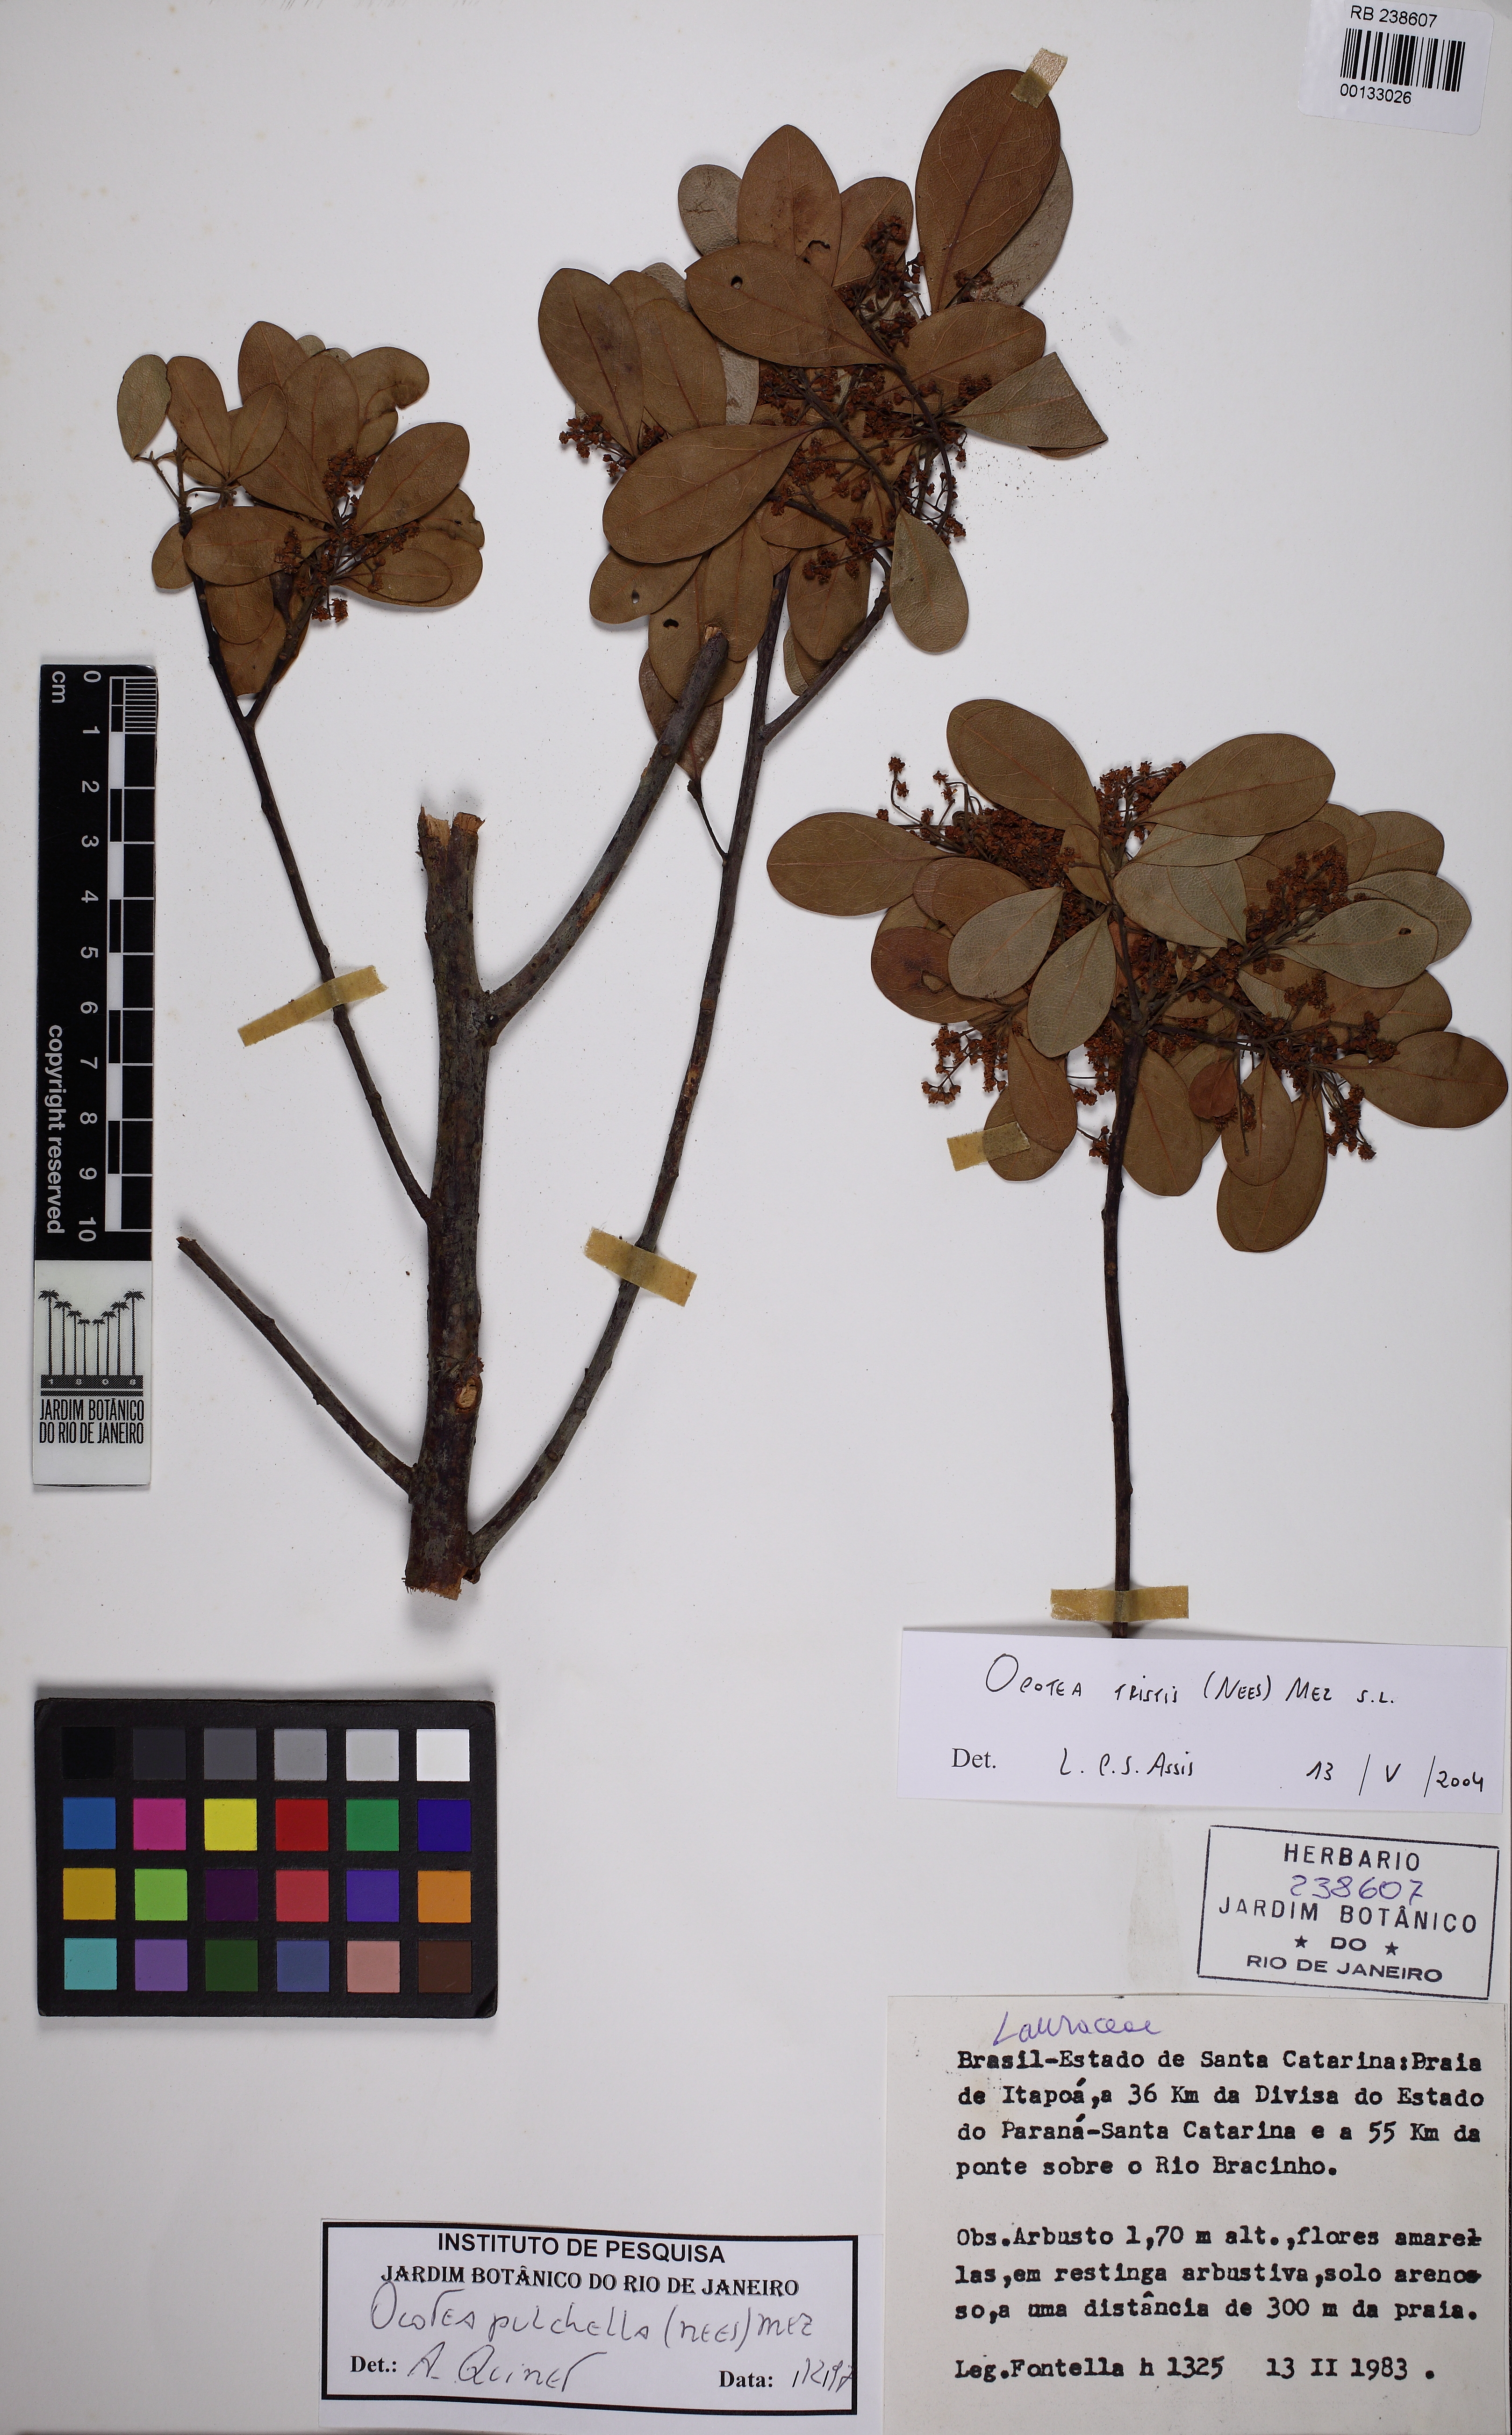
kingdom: Plantae
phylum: Tracheophyta
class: Magnoliopsida
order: Laurales
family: Lauraceae
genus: Mespilodaphne
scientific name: Mespilodaphne tristis
